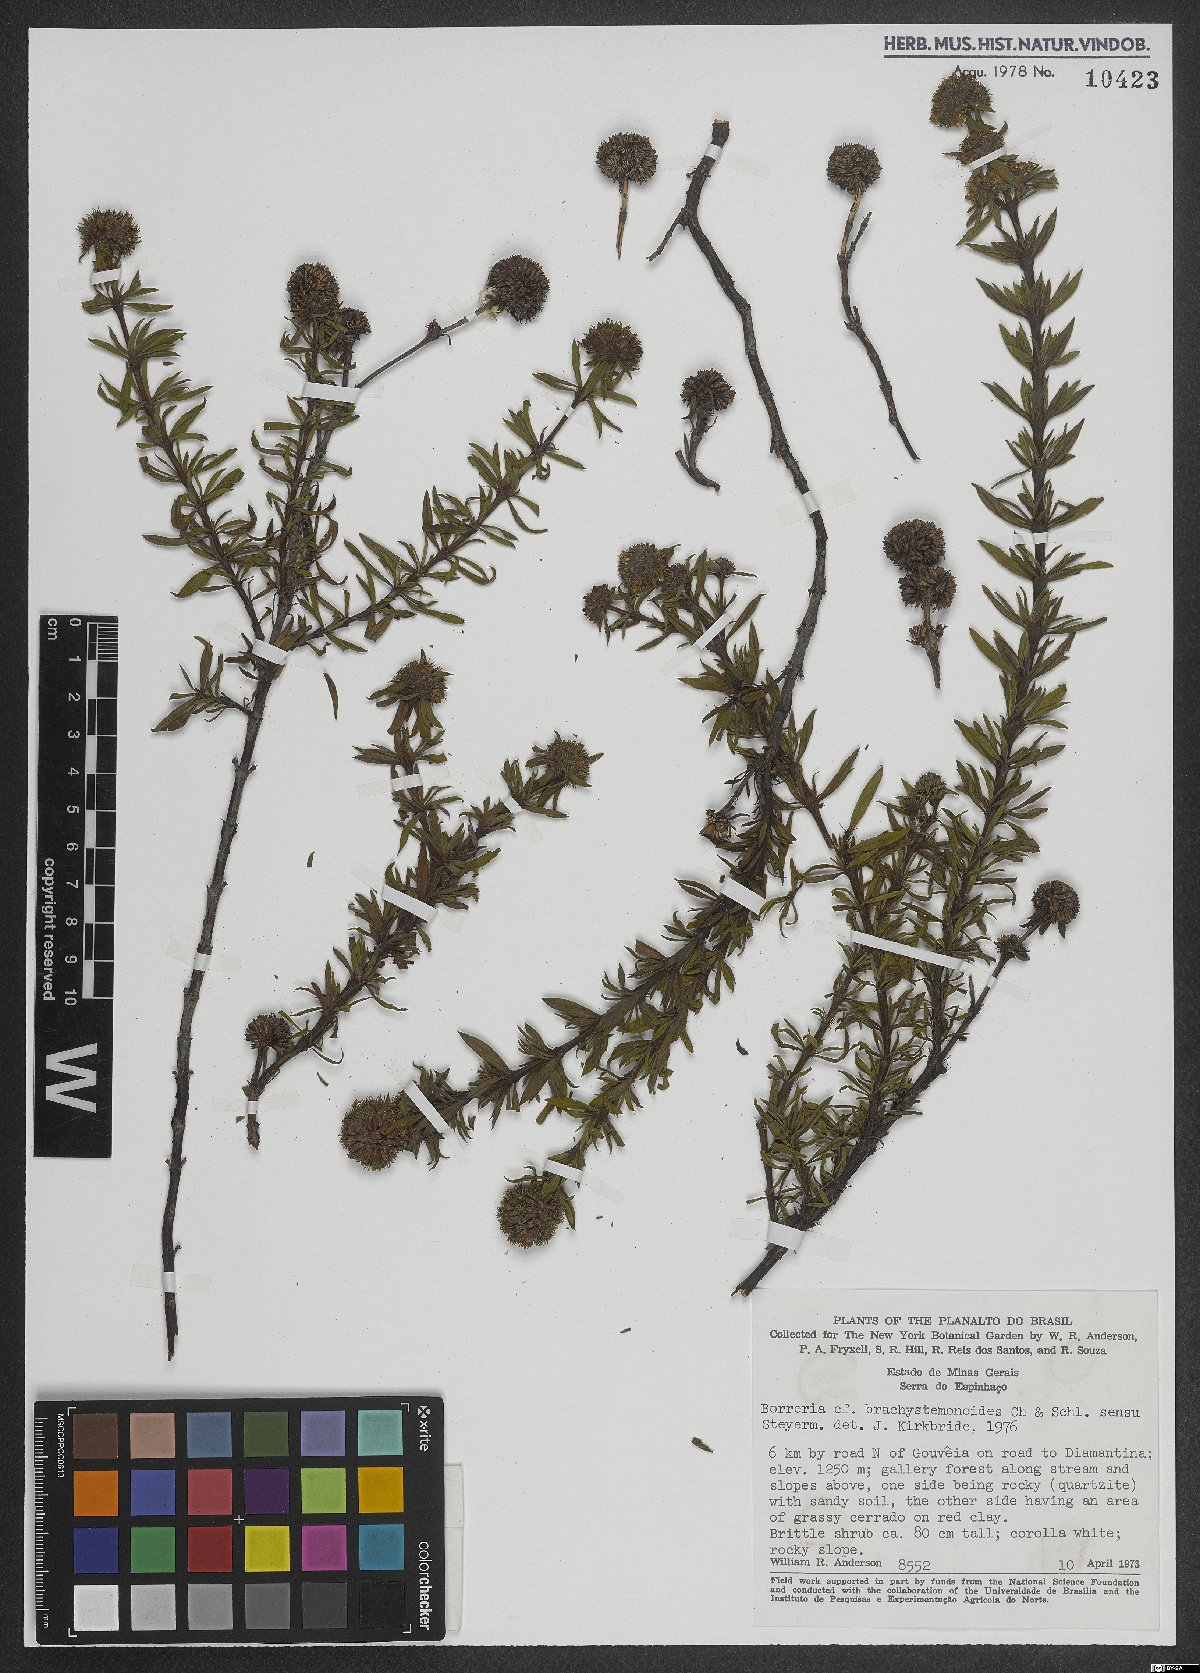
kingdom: Plantae
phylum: Tracheophyta
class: Magnoliopsida
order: Gentianales
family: Rubiaceae
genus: Spermacoce
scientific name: Spermacoce brachystemonoides
